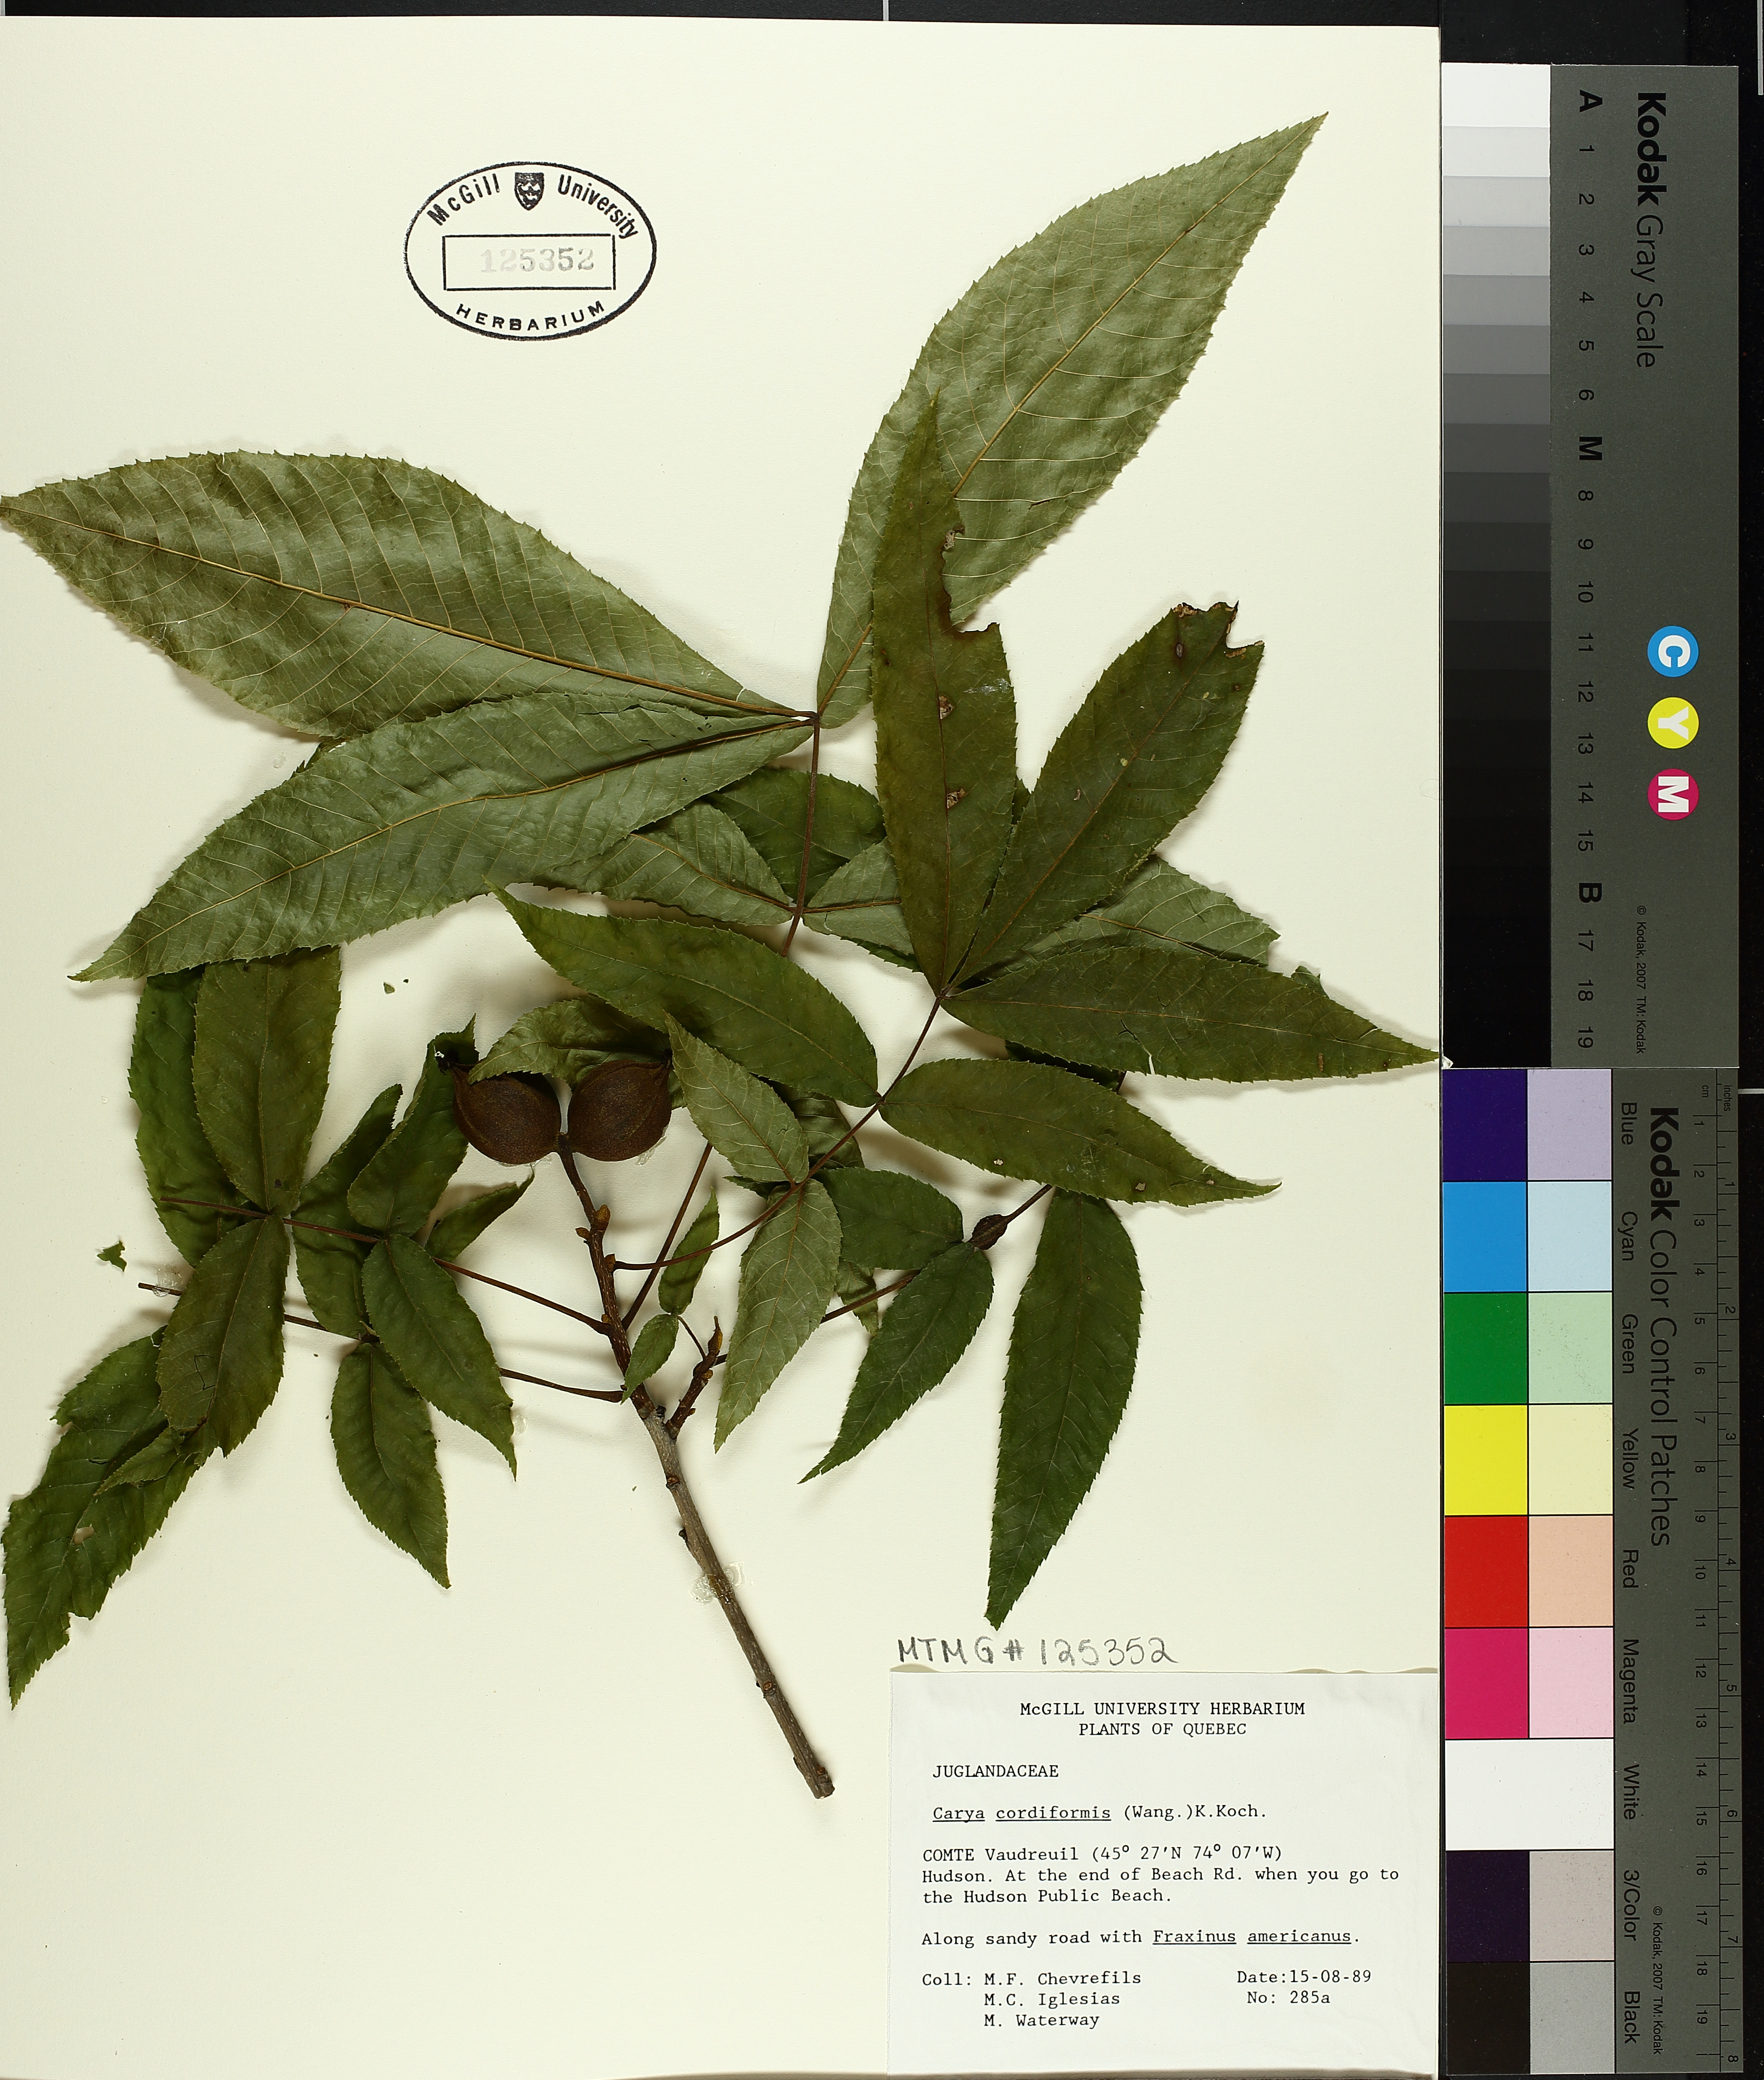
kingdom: Plantae
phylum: Tracheophyta
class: Magnoliopsida
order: Fagales
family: Juglandaceae
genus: Carya
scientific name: Carya cordiformis
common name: Bitternut hickory
